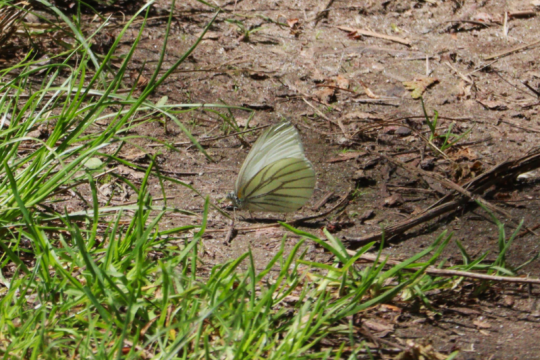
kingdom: Animalia
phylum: Arthropoda
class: Insecta
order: Lepidoptera
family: Pieridae
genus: Pieris
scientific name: Pieris oleracea
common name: Mustard White
